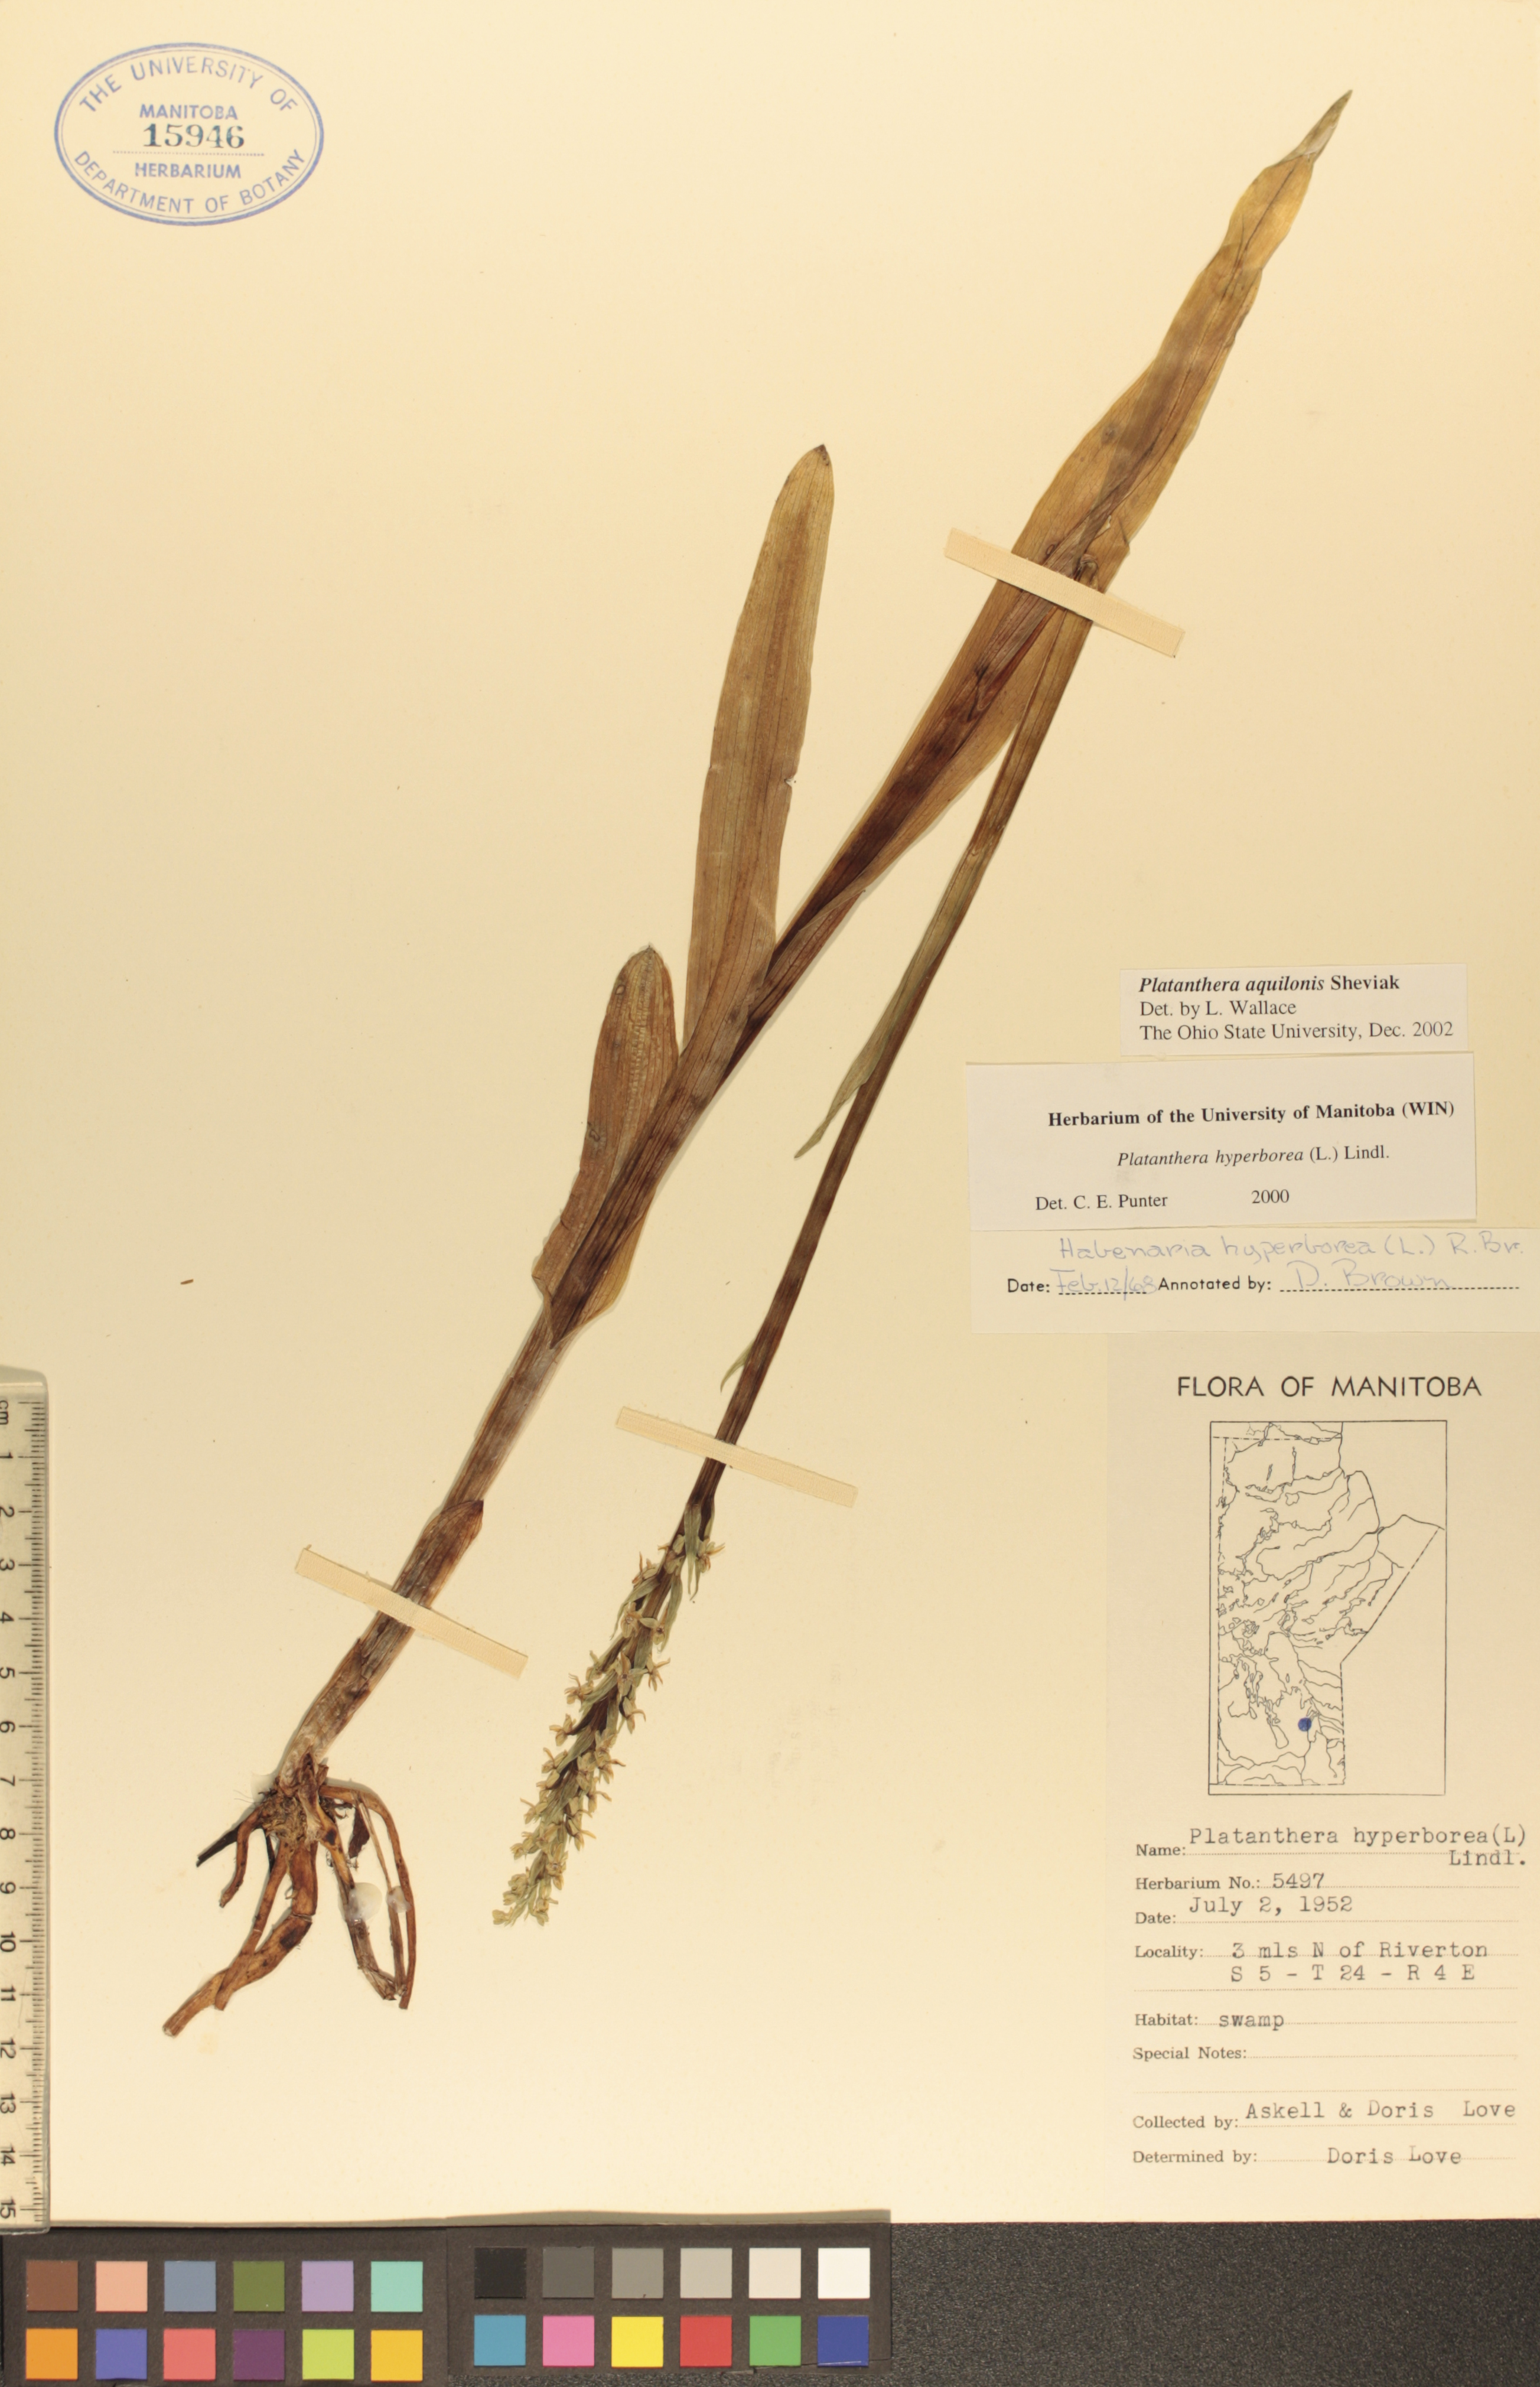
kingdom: Plantae
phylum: Tracheophyta
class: Liliopsida
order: Asparagales
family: Orchidaceae
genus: Platanthera
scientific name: Platanthera aquilonis
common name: Northern green orchid
